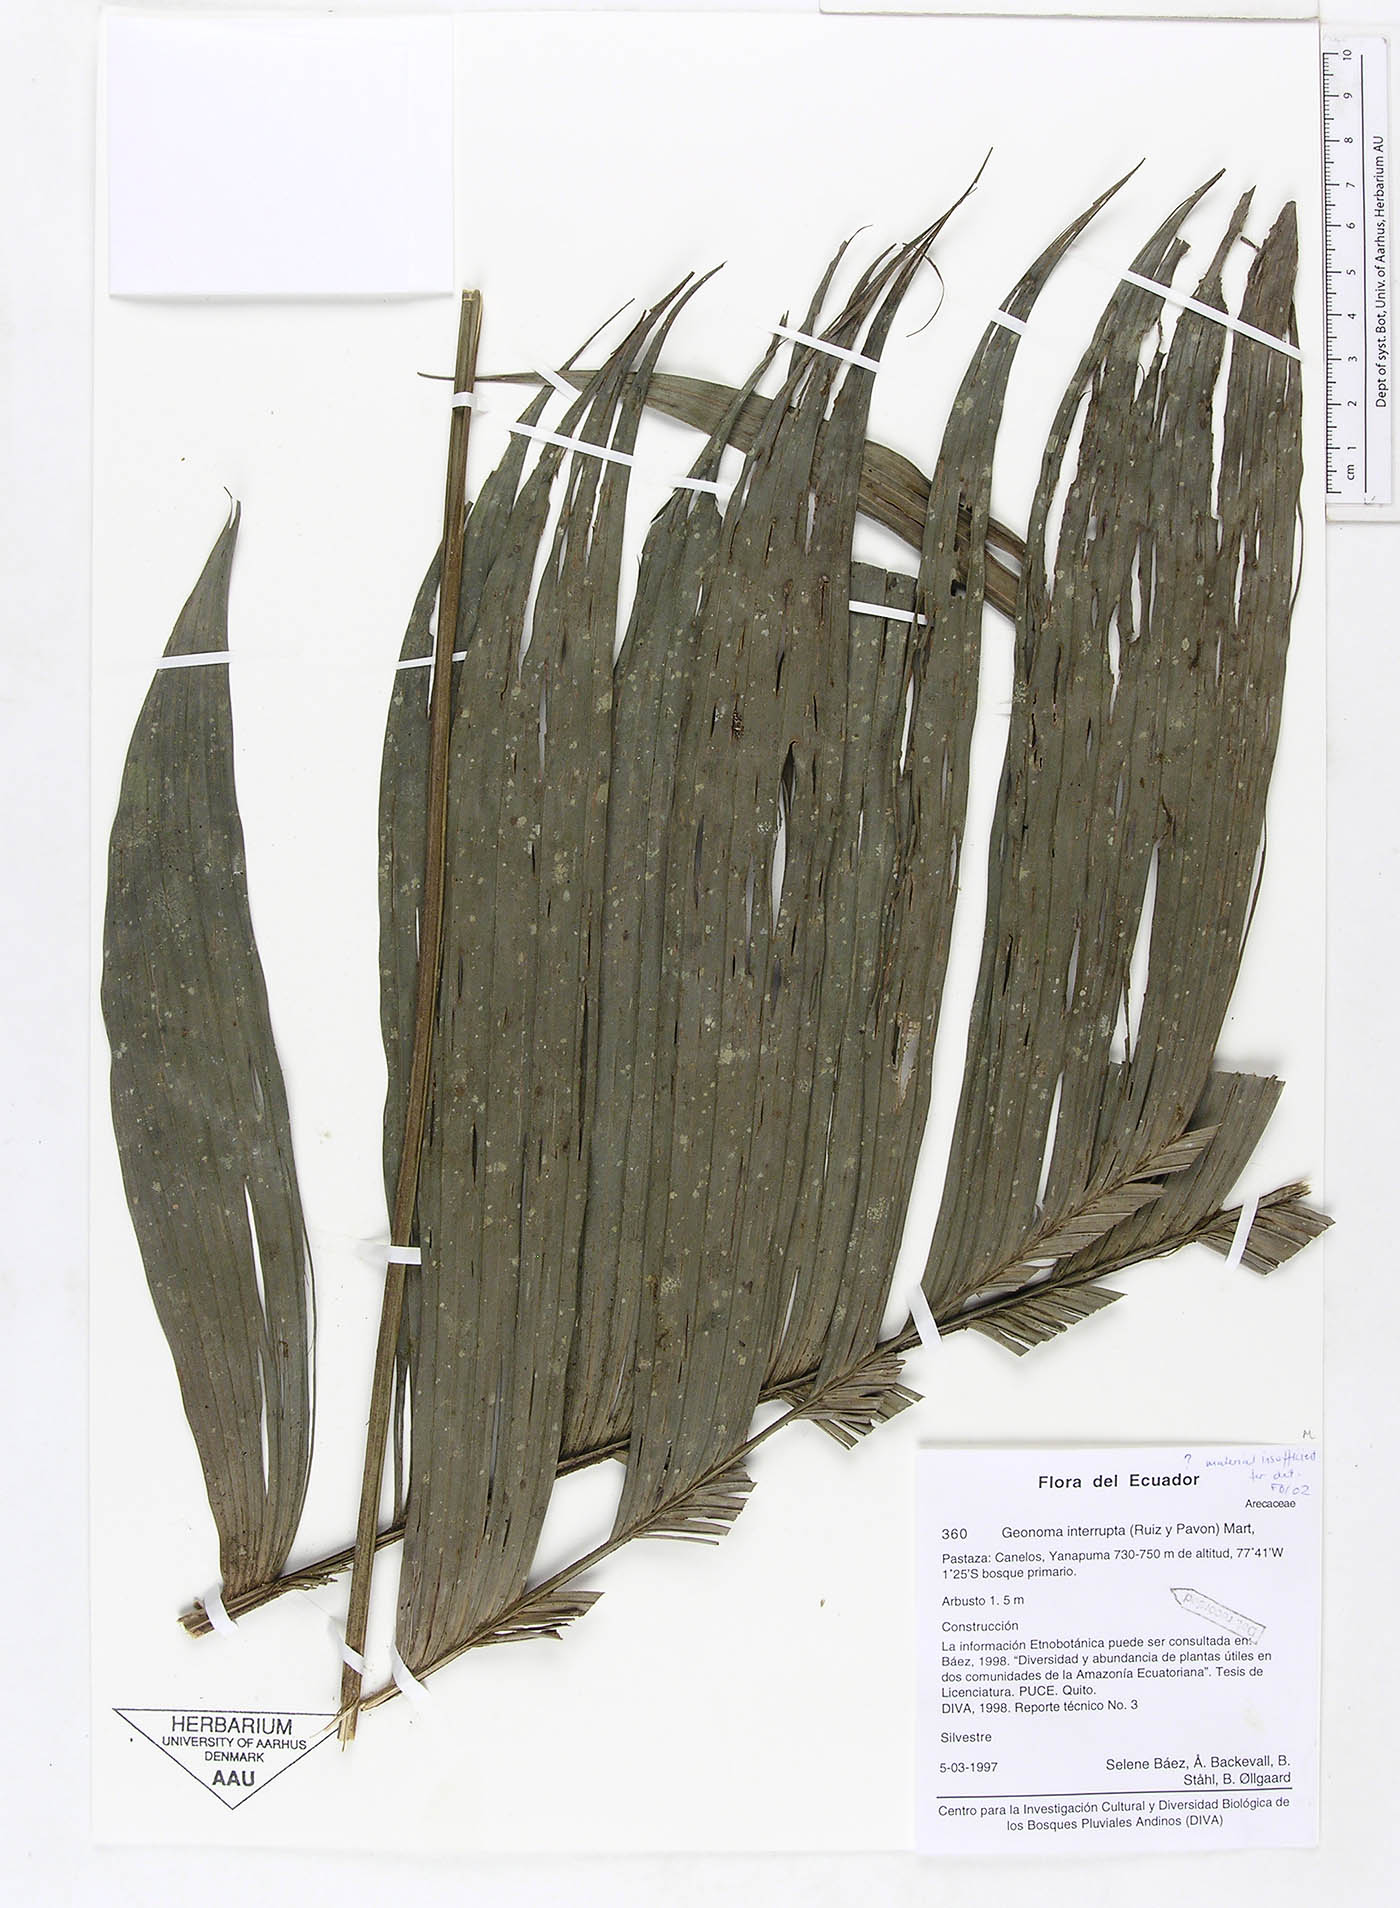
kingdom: Plantae
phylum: Tracheophyta
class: Liliopsida
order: Arecales
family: Arecaceae
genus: Geonoma
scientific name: Geonoma interrupta
